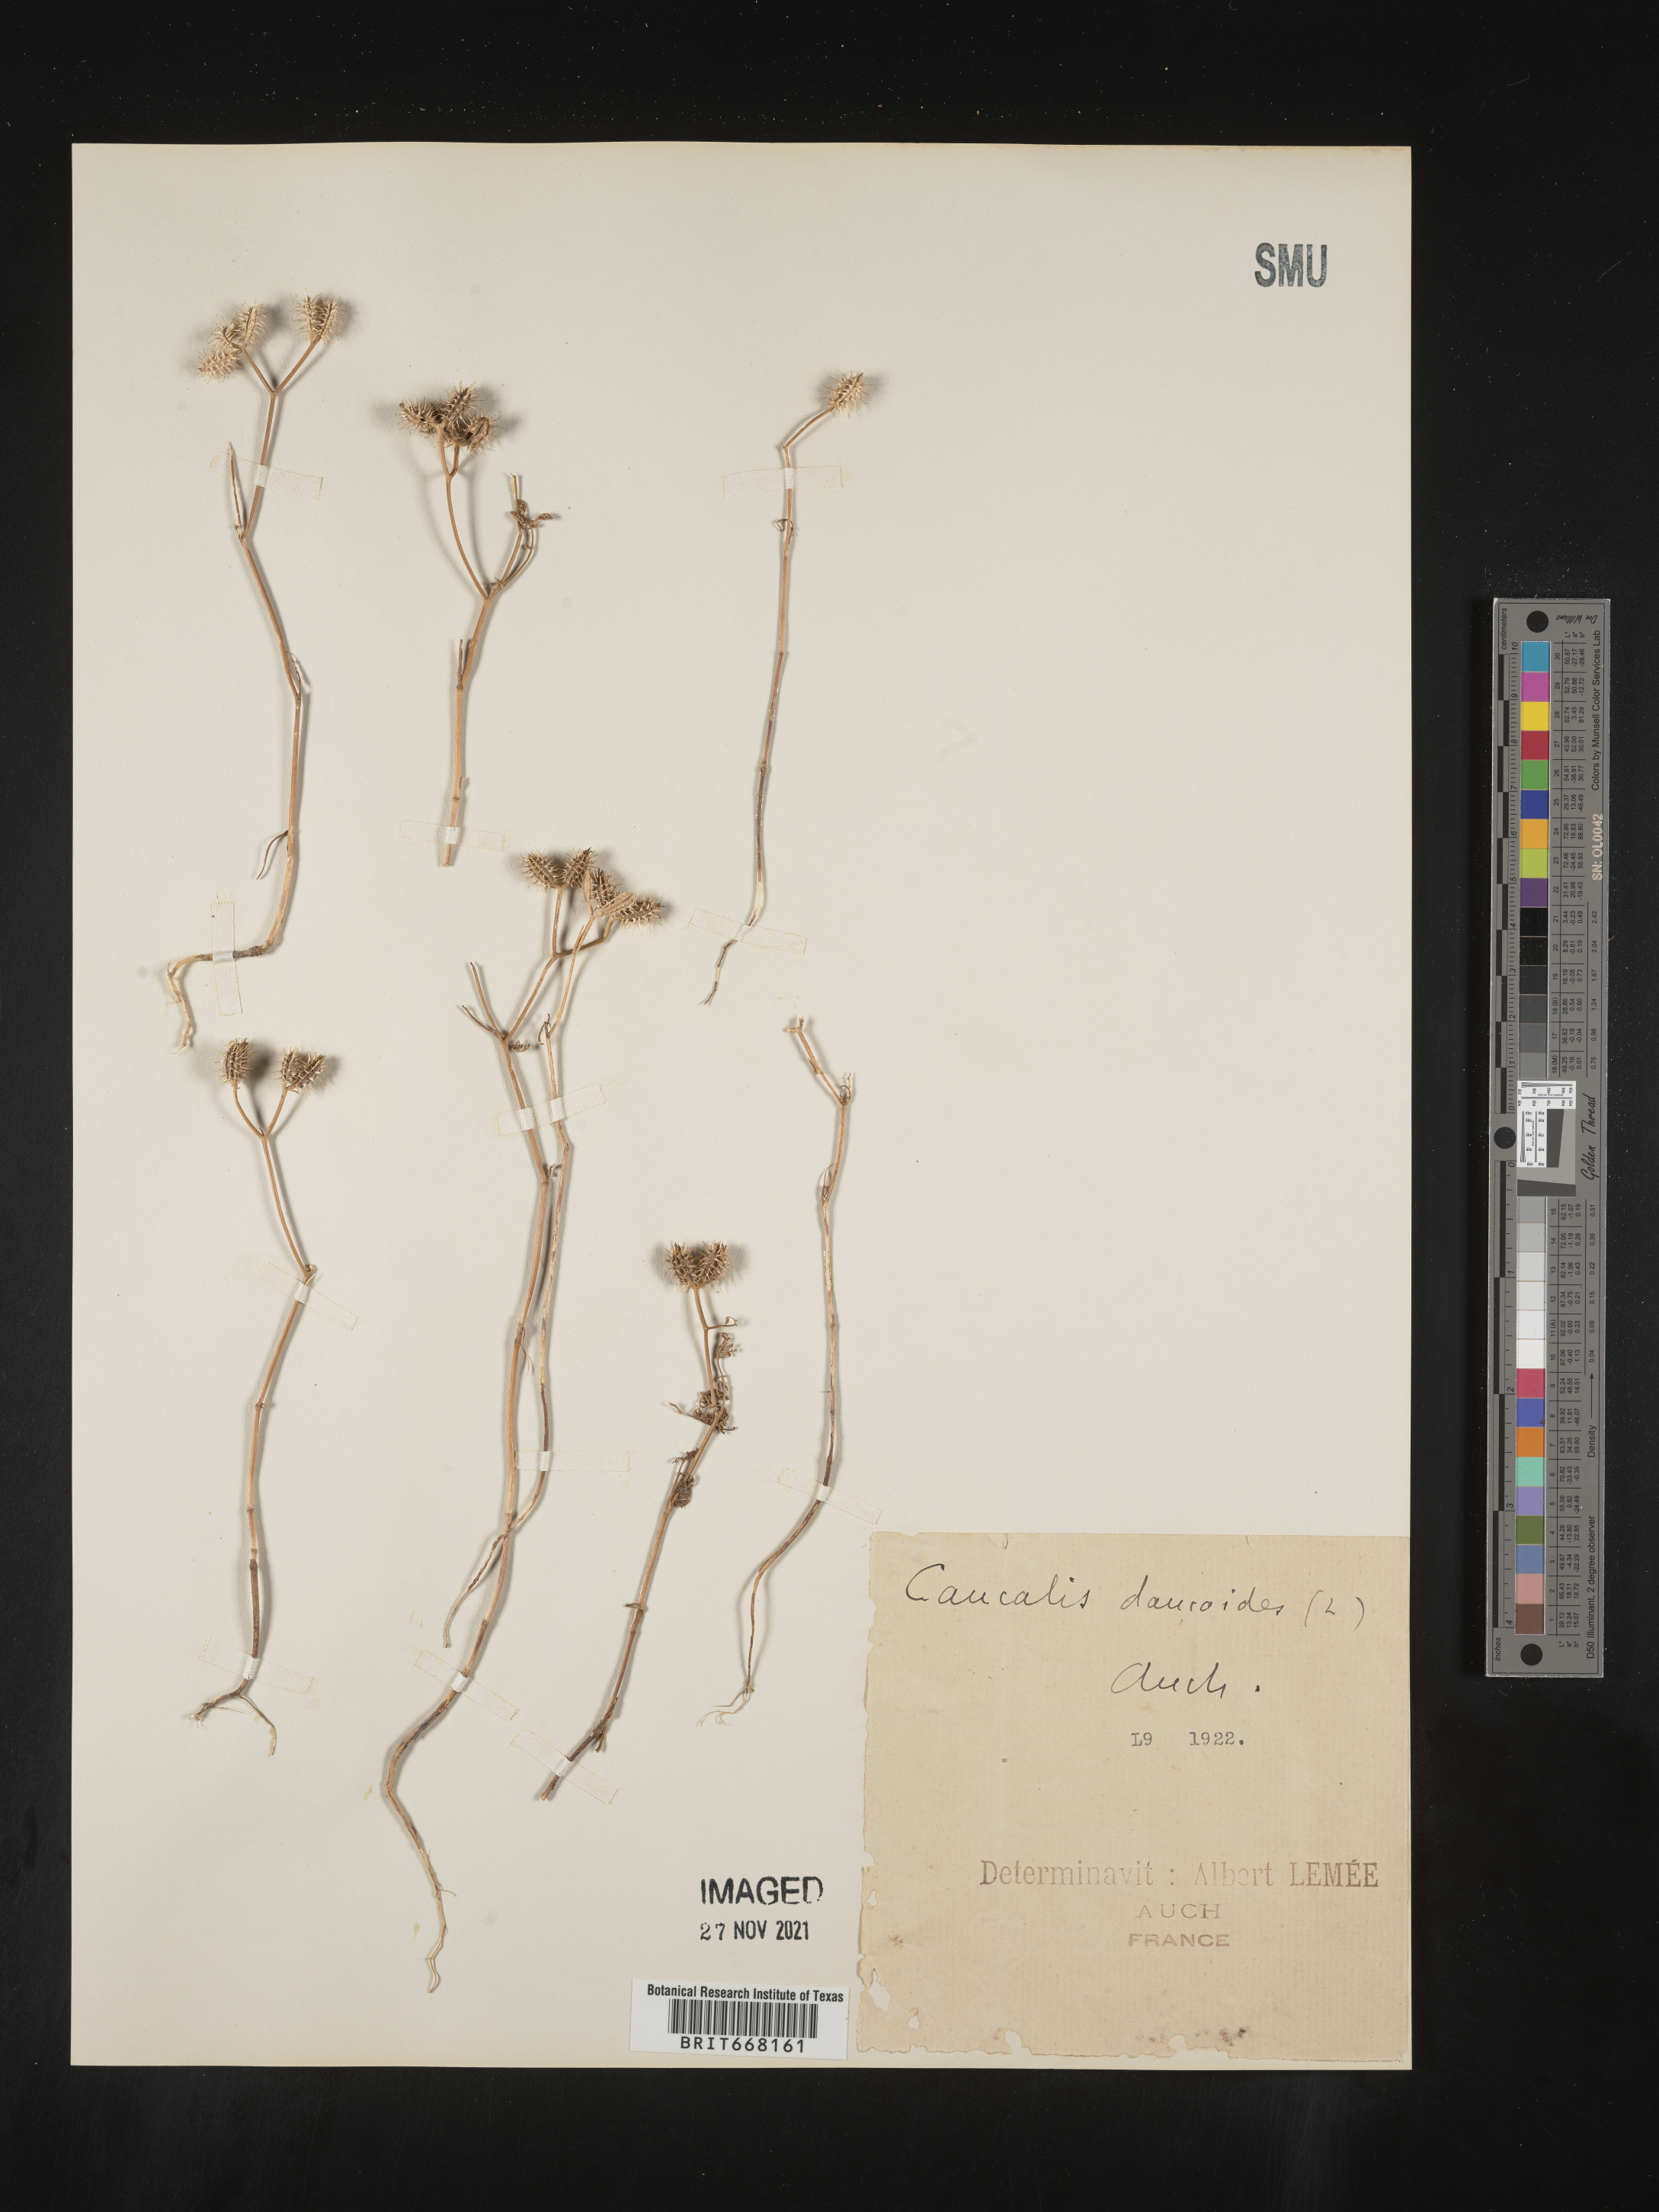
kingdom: Plantae
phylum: Tracheophyta
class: Magnoliopsida
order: Apiales
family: Apiaceae
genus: Caucalis
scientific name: Caucalis
